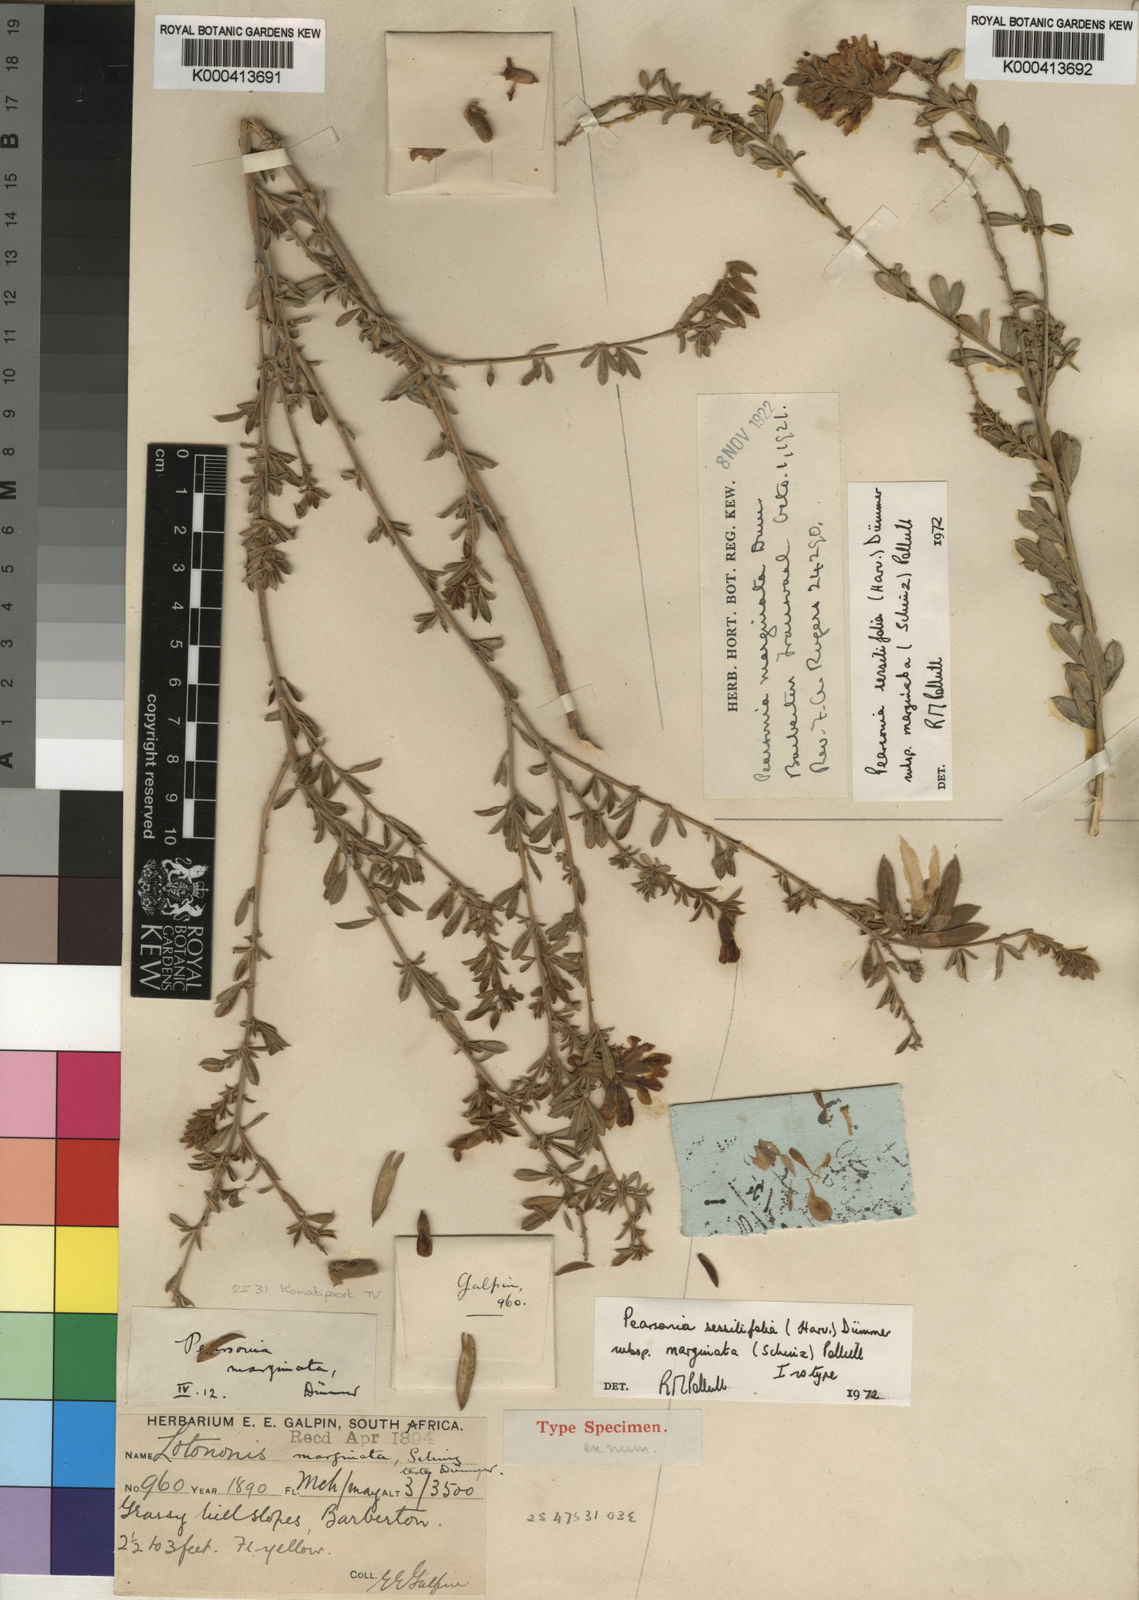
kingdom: Plantae
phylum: Tracheophyta
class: Magnoliopsida
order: Fabales
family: Fabaceae
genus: Pearsonia
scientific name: Pearsonia sessilifolia
